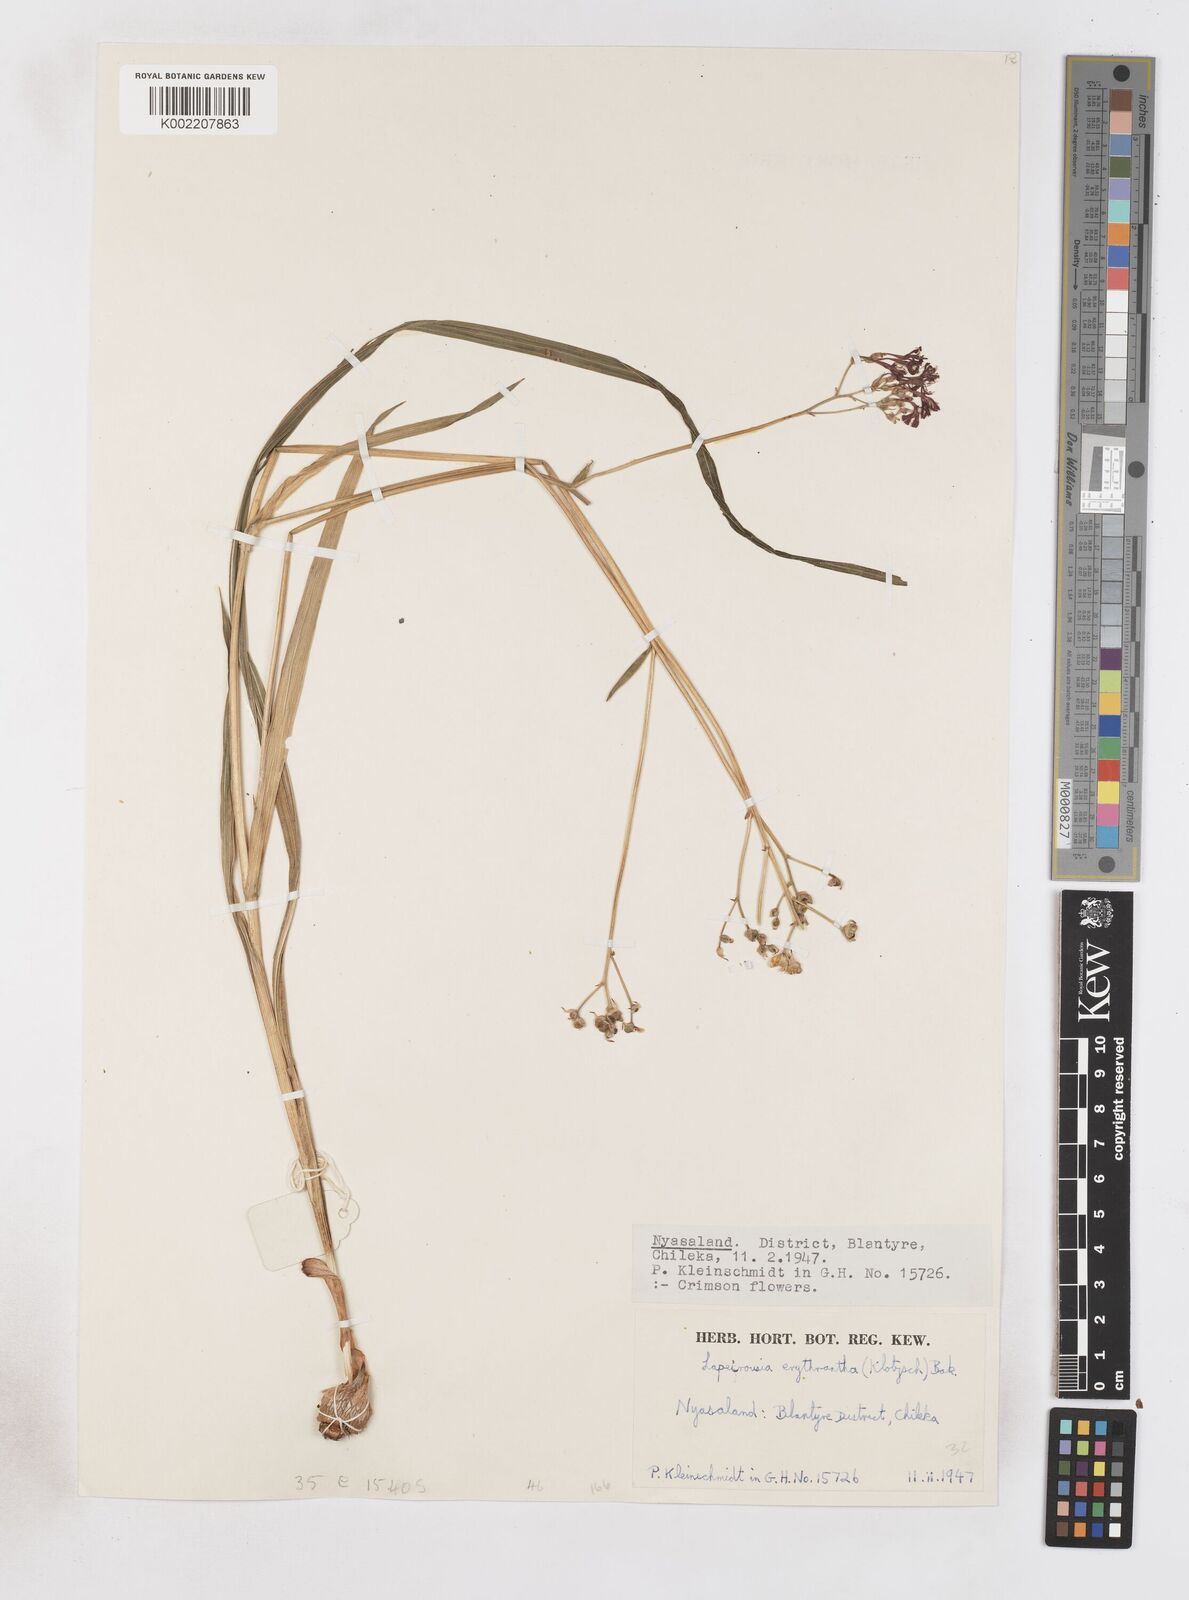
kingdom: Plantae
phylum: Tracheophyta
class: Liliopsida
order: Asparagales
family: Iridaceae
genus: Afrosolen
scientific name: Afrosolen erythranthus
